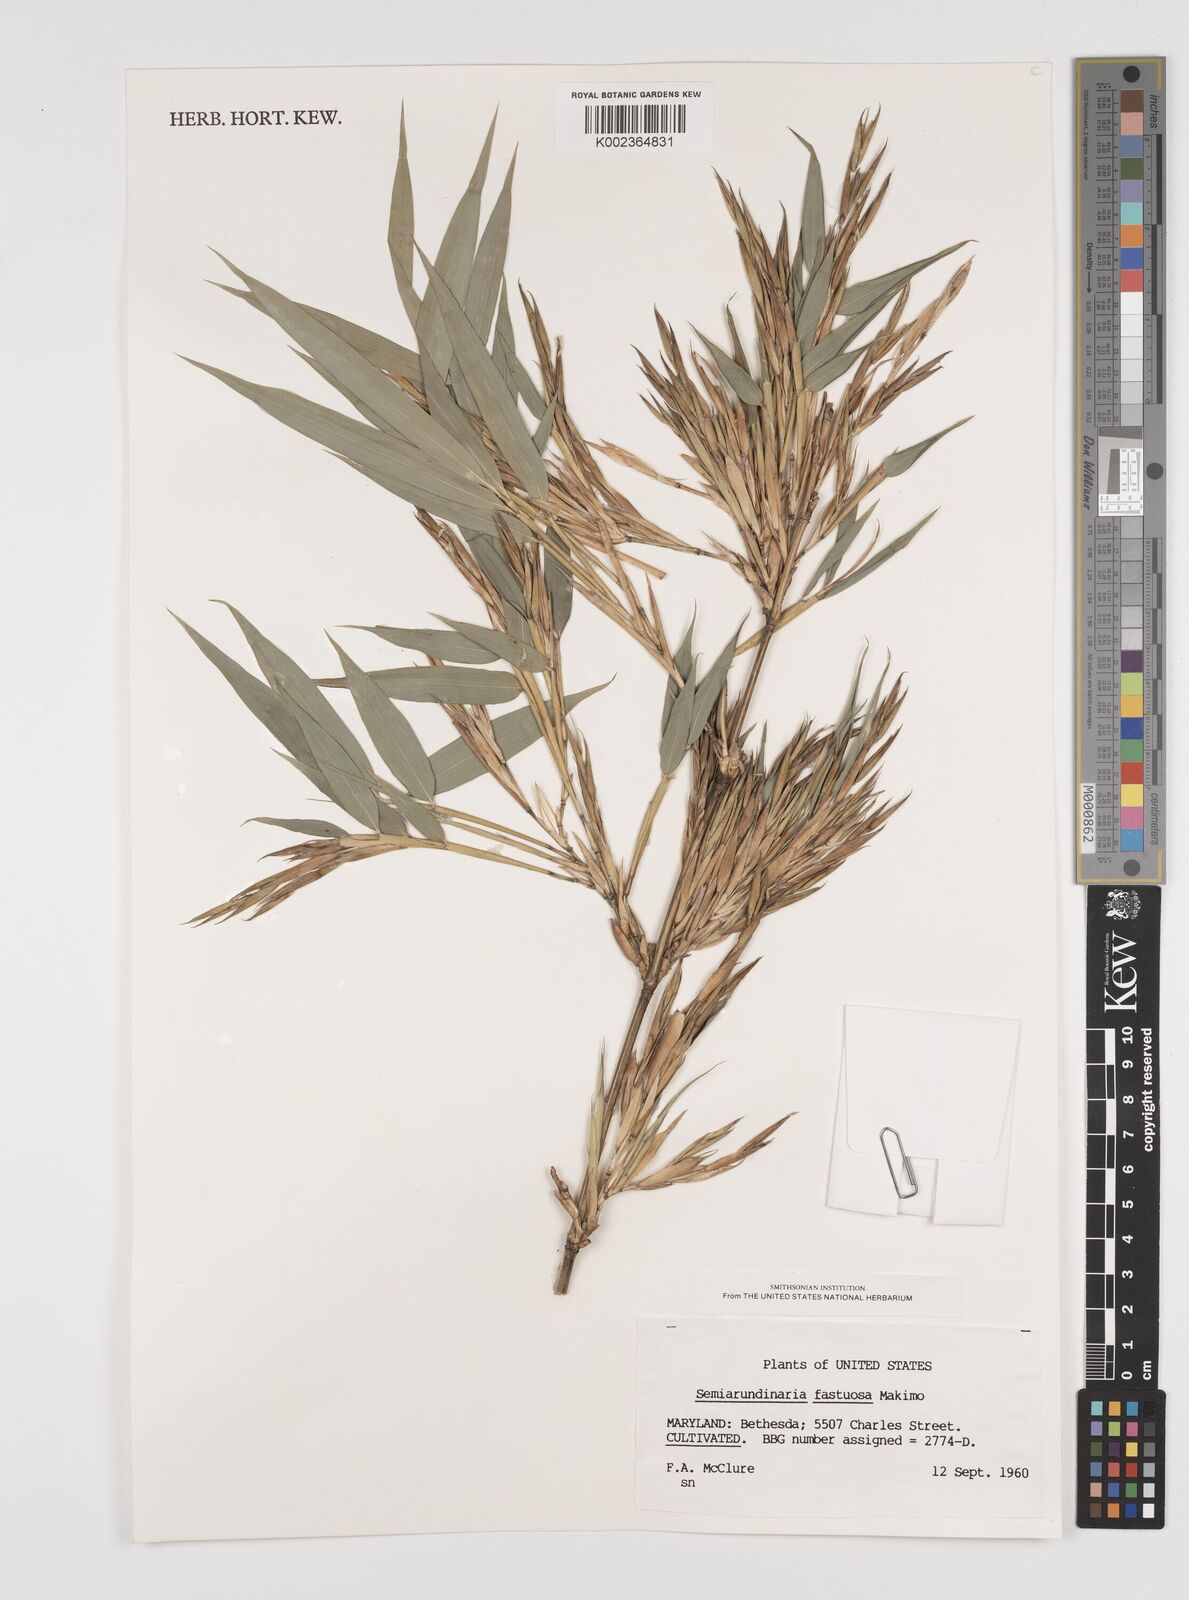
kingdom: Plantae
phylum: Tracheophyta
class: Liliopsida
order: Poales
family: Poaceae
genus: Semiarundinaria
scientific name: Semiarundinaria fastuosa
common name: Narihira bamboo
